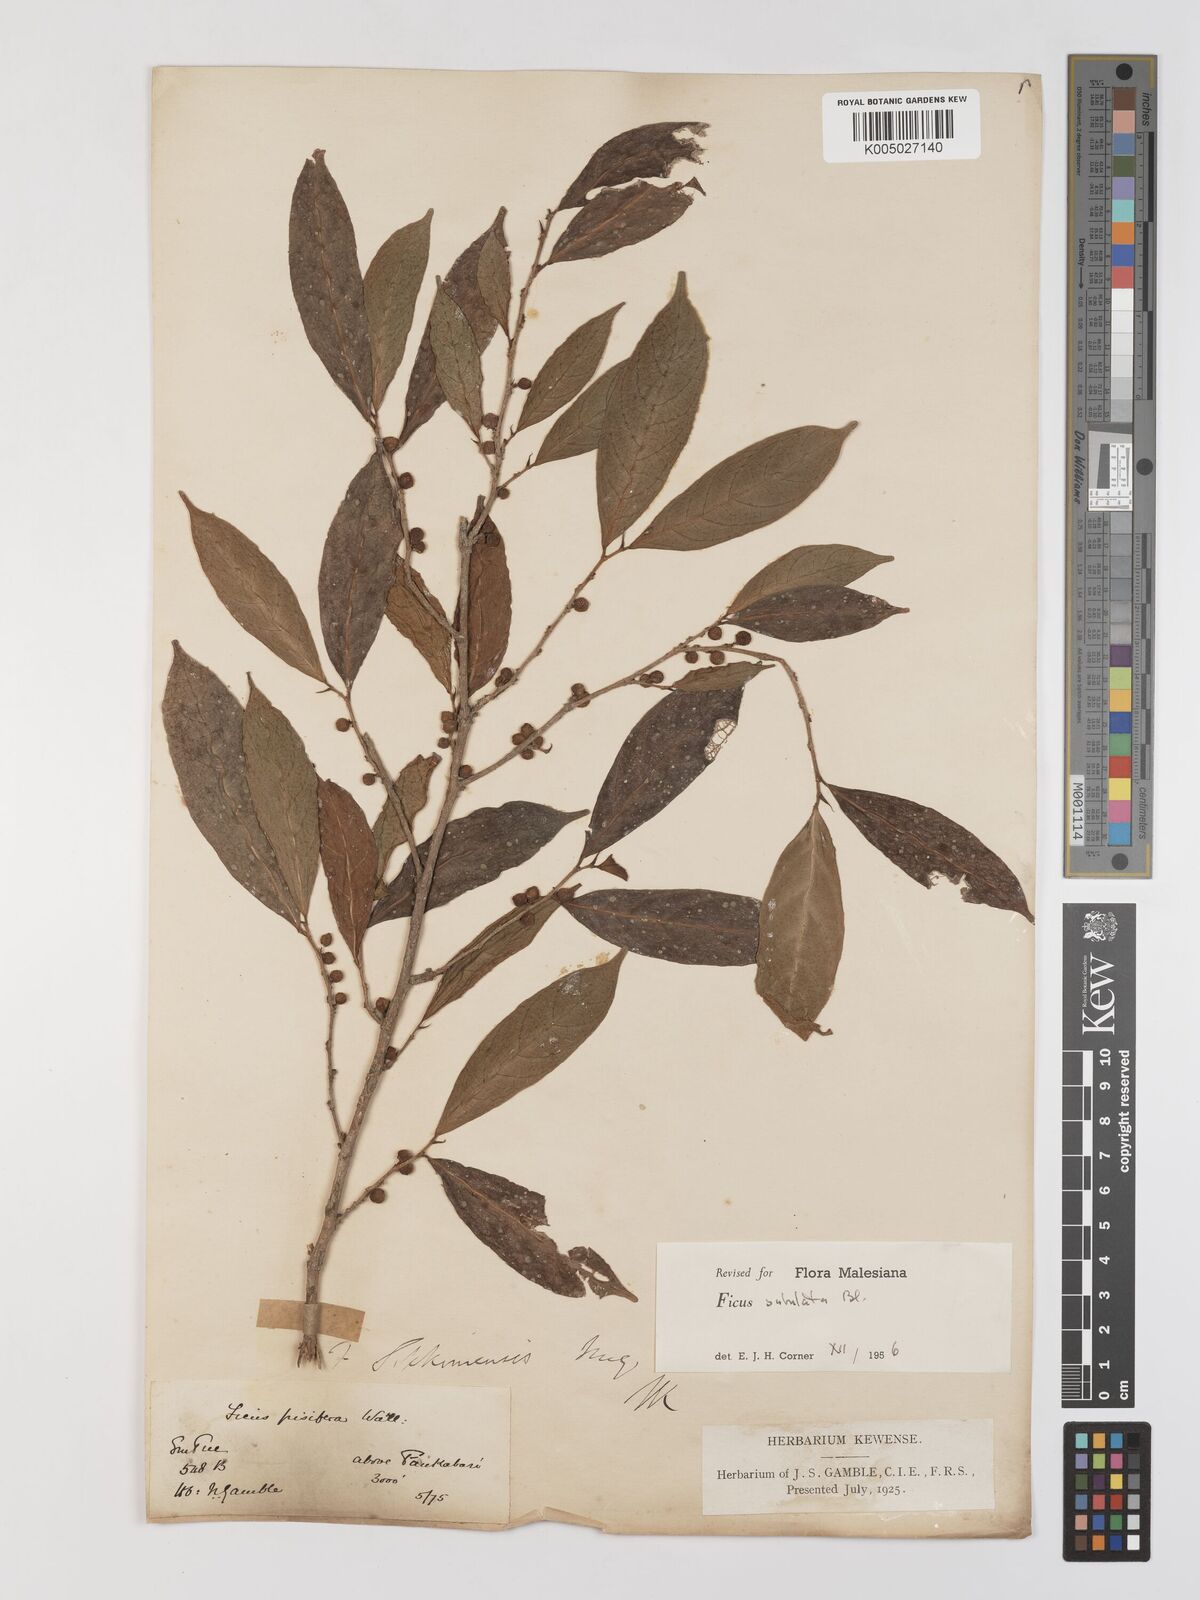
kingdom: Plantae
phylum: Tracheophyta
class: Magnoliopsida
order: Rosales
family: Moraceae
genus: Ficus
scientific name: Ficus subulata
